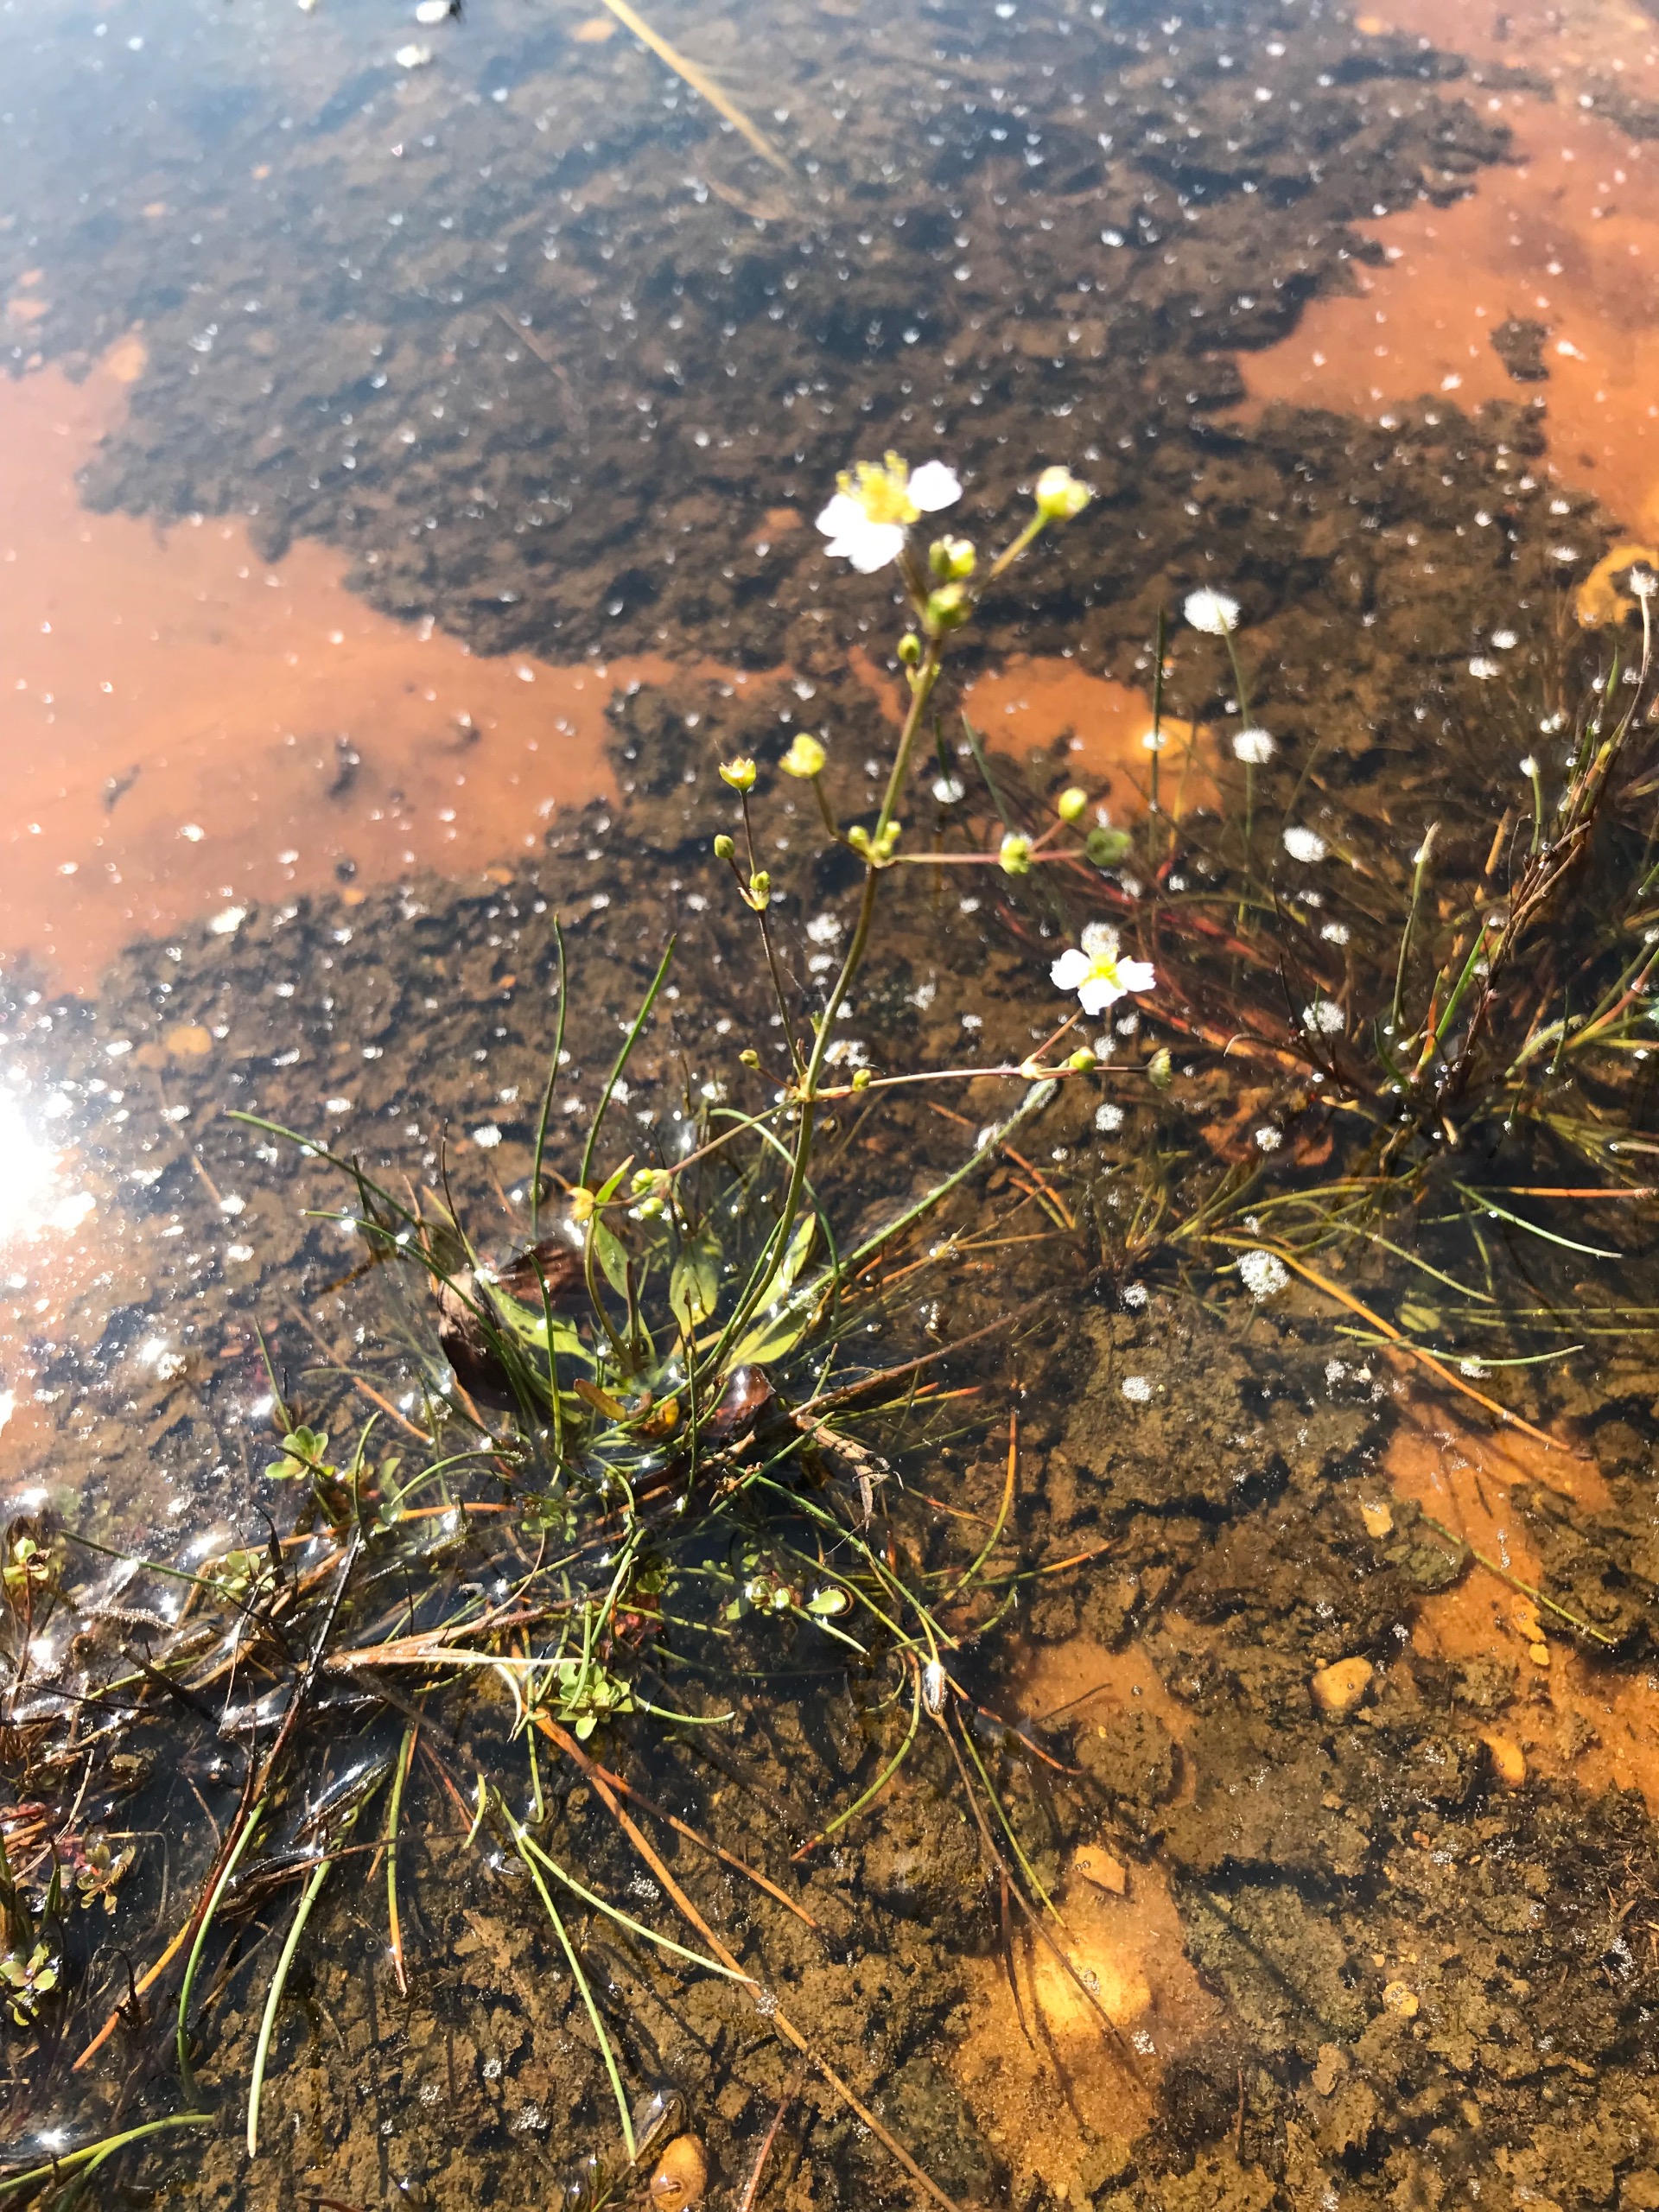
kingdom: Plantae
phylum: Tracheophyta
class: Liliopsida
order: Alismatales
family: Alismataceae
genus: Alisma
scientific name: Alisma plantago-aquatica
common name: Vejbred-skeblad
